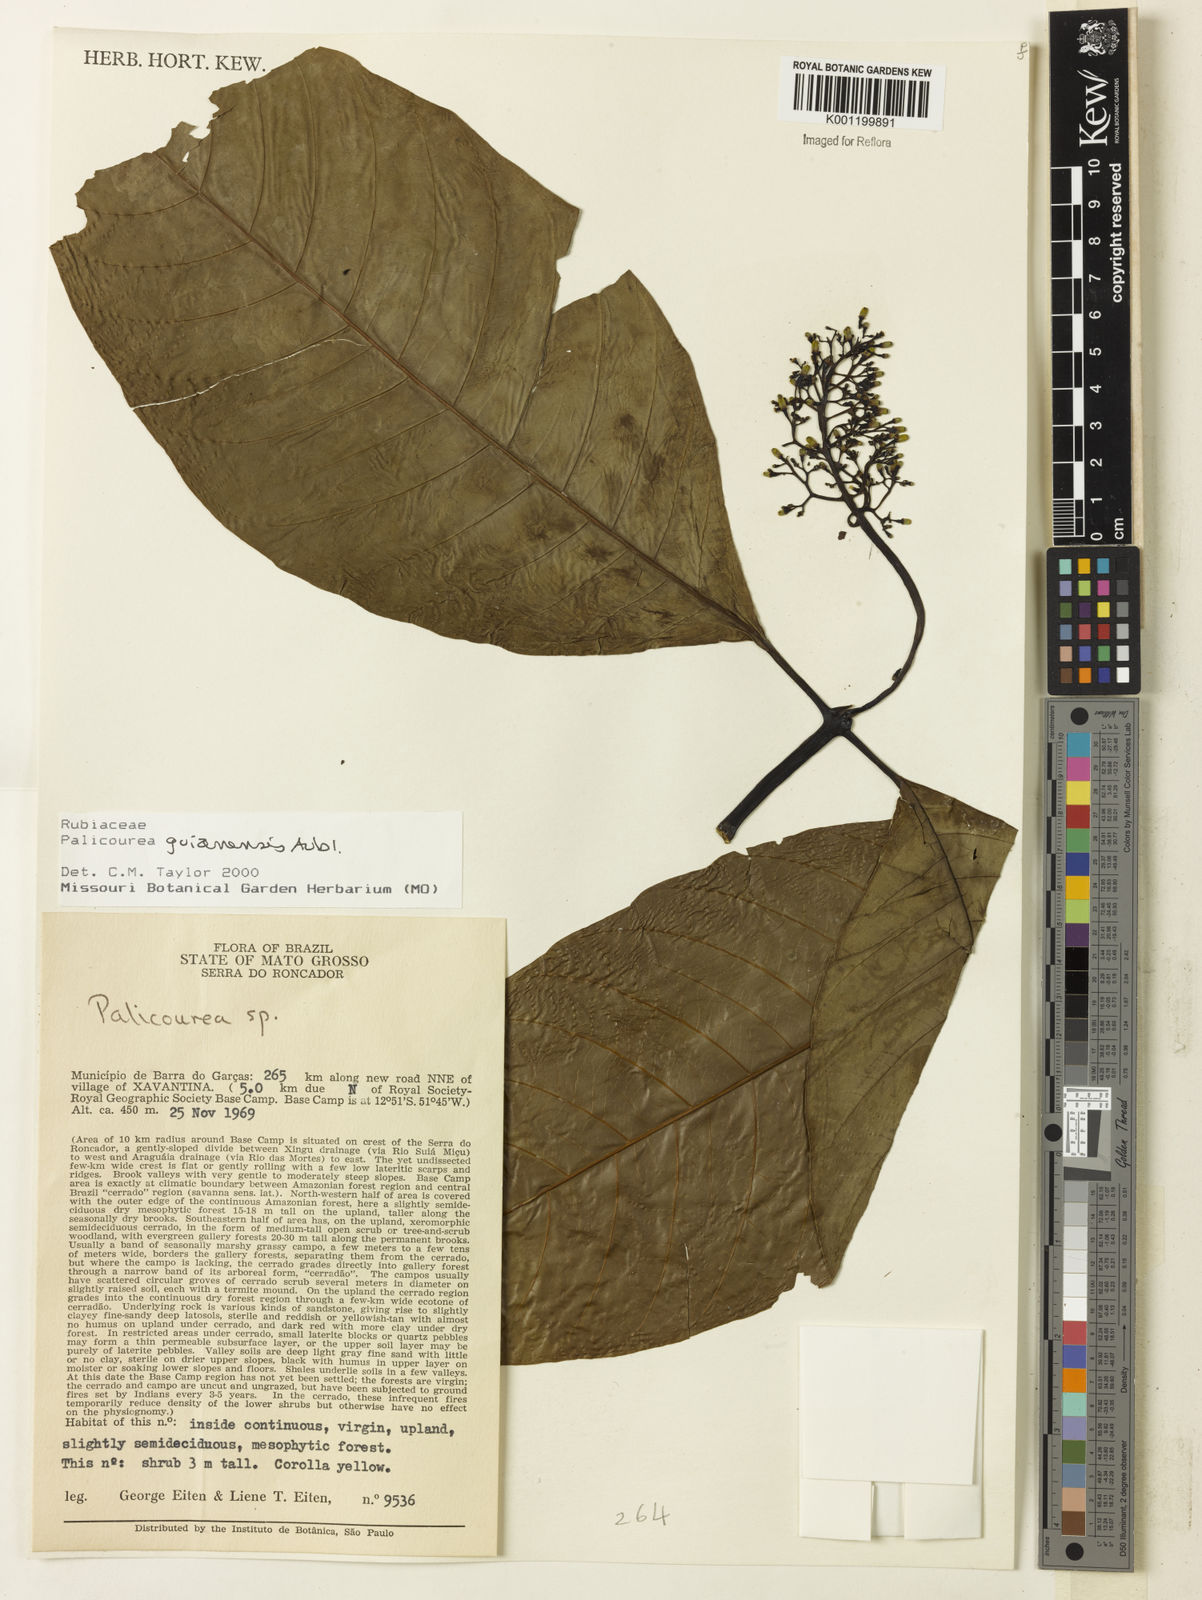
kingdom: Plantae
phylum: Tracheophyta
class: Magnoliopsida
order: Gentianales
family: Rubiaceae
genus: Palicourea
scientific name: Palicourea guianensis
